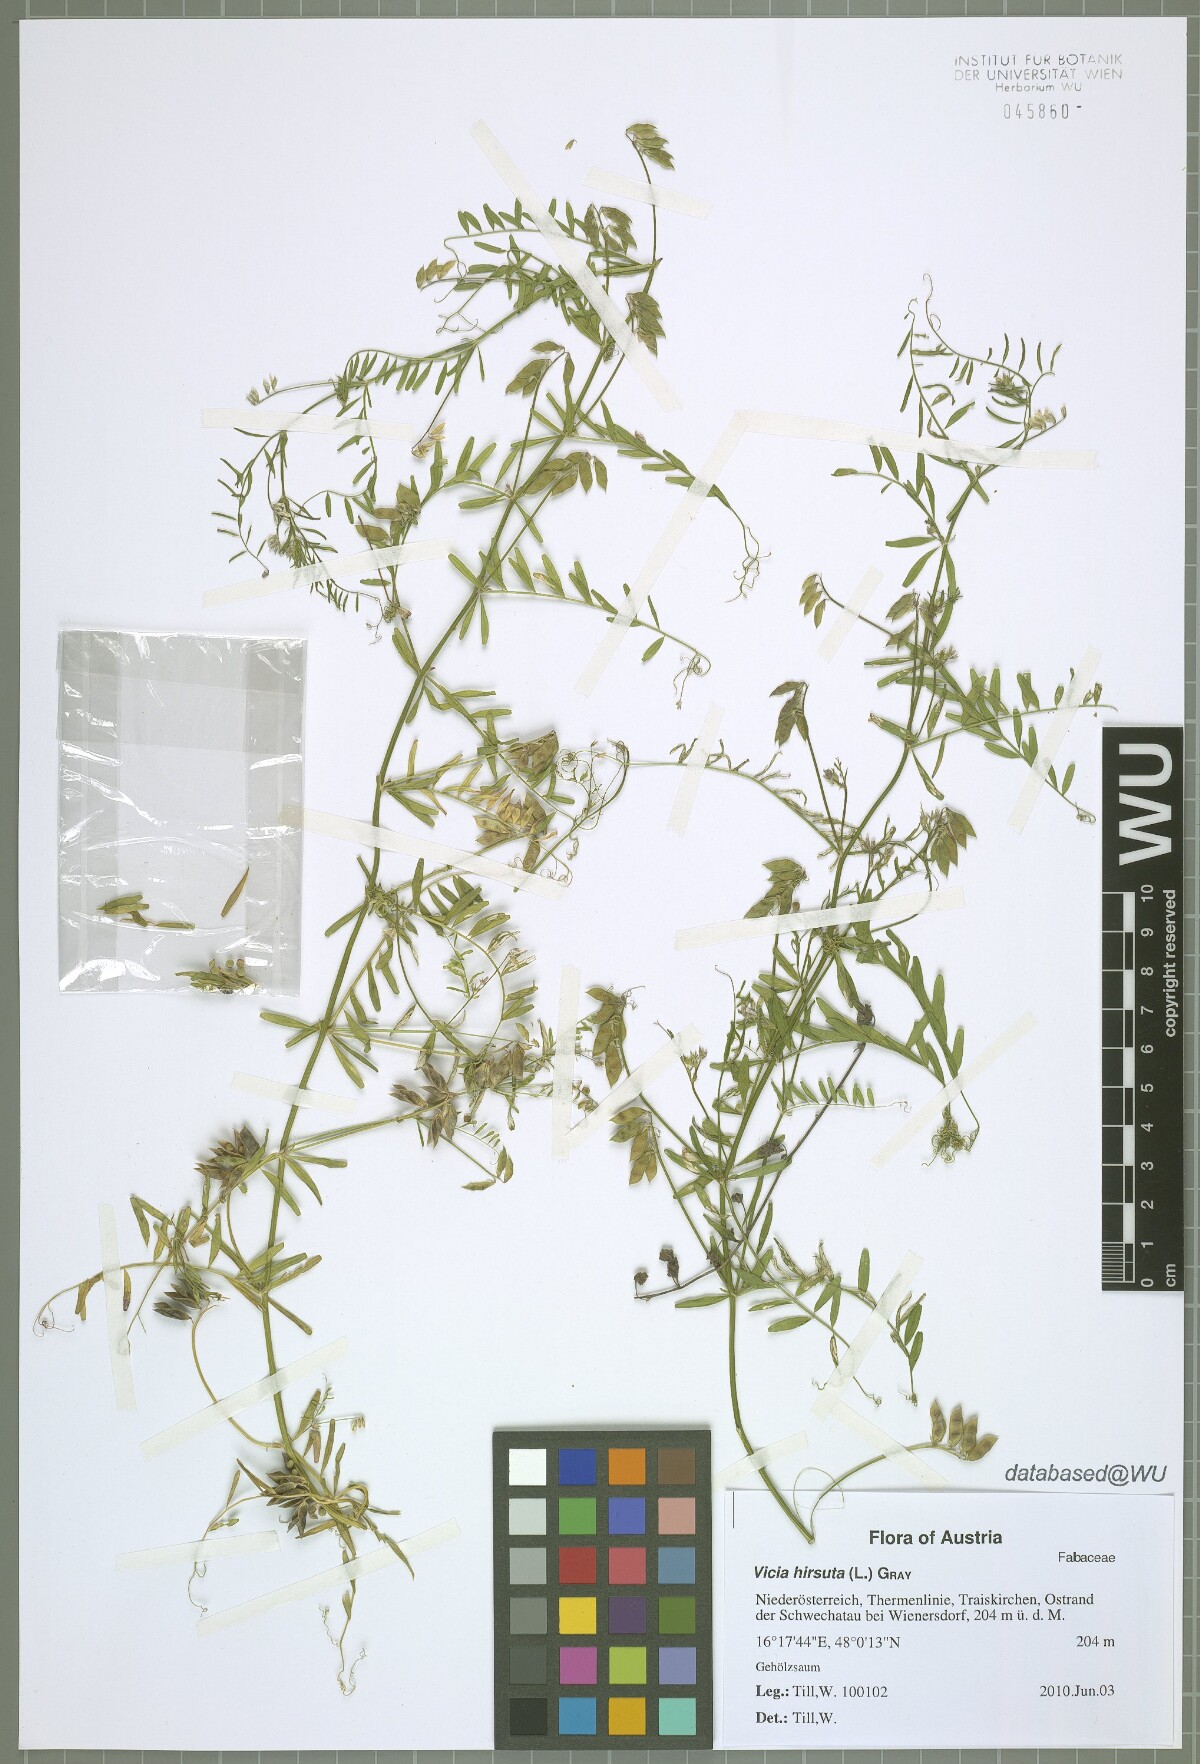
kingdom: Plantae
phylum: Tracheophyta
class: Magnoliopsida
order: Fabales
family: Fabaceae
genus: Vicia
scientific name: Vicia hirsuta
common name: Tiny vetch
